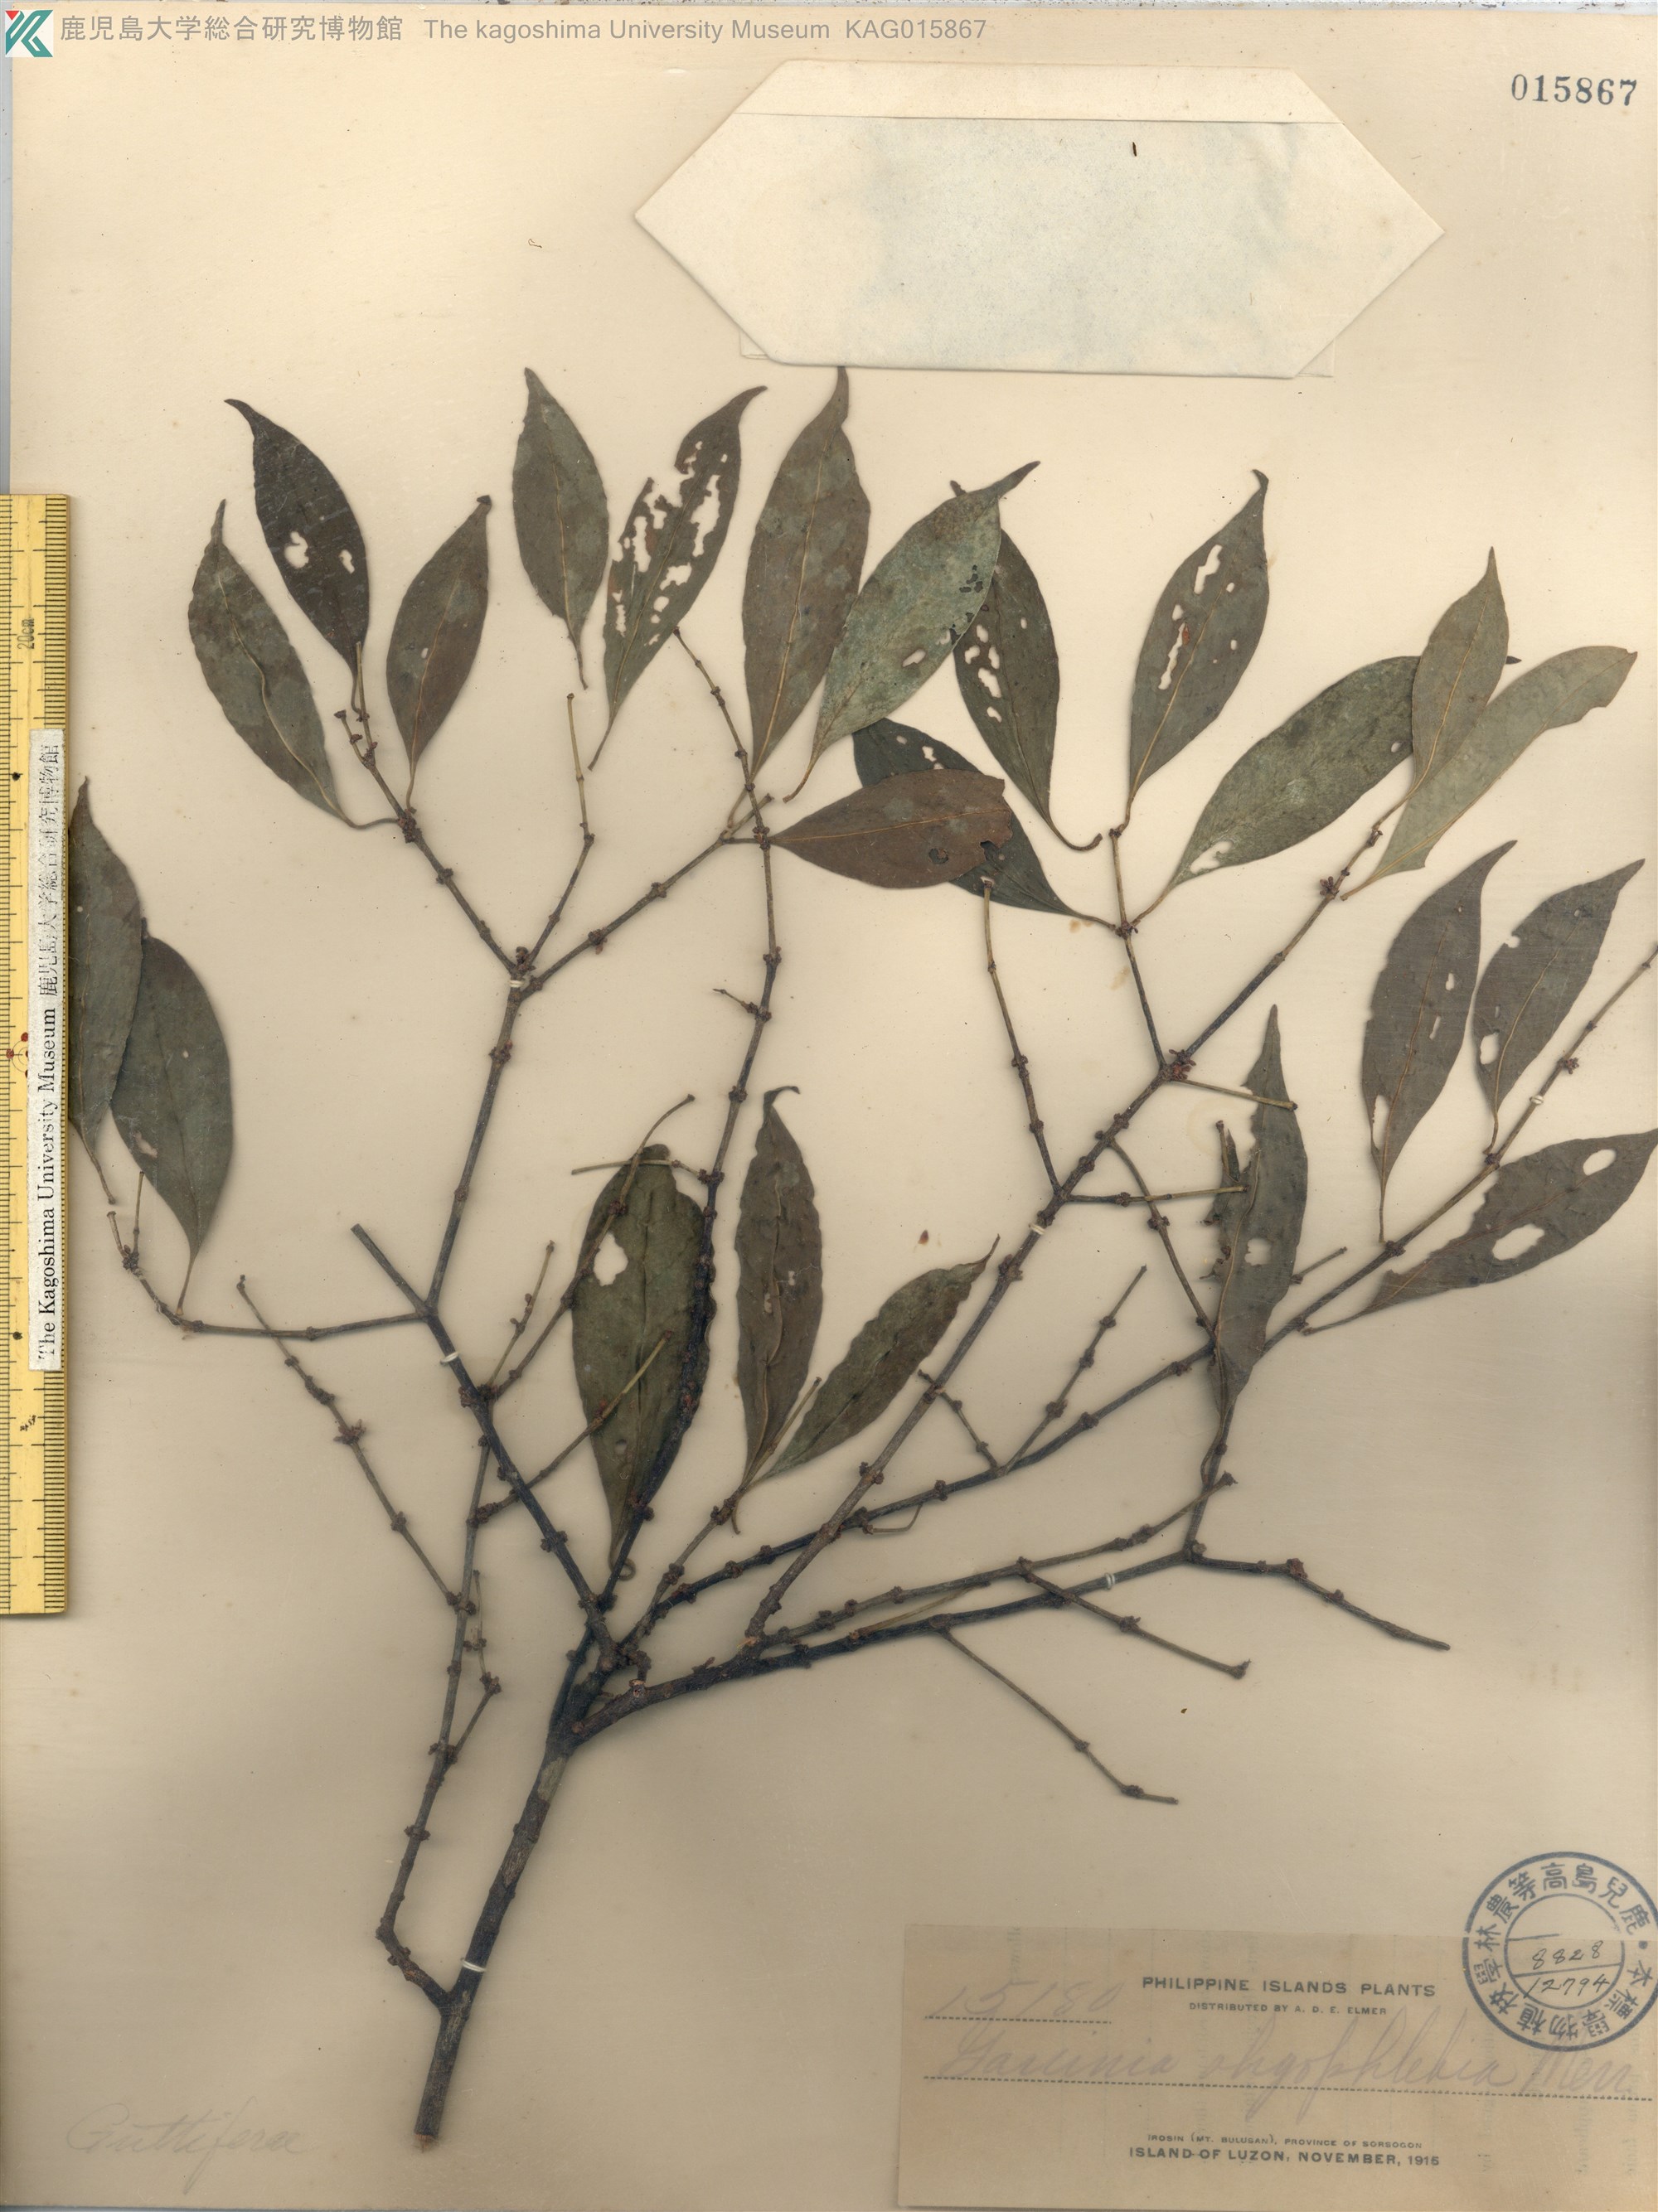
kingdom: Plantae
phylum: Tracheophyta
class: Magnoliopsida
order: Malpighiales
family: Clusiaceae
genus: Garcinia
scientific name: Garcinia rubra
